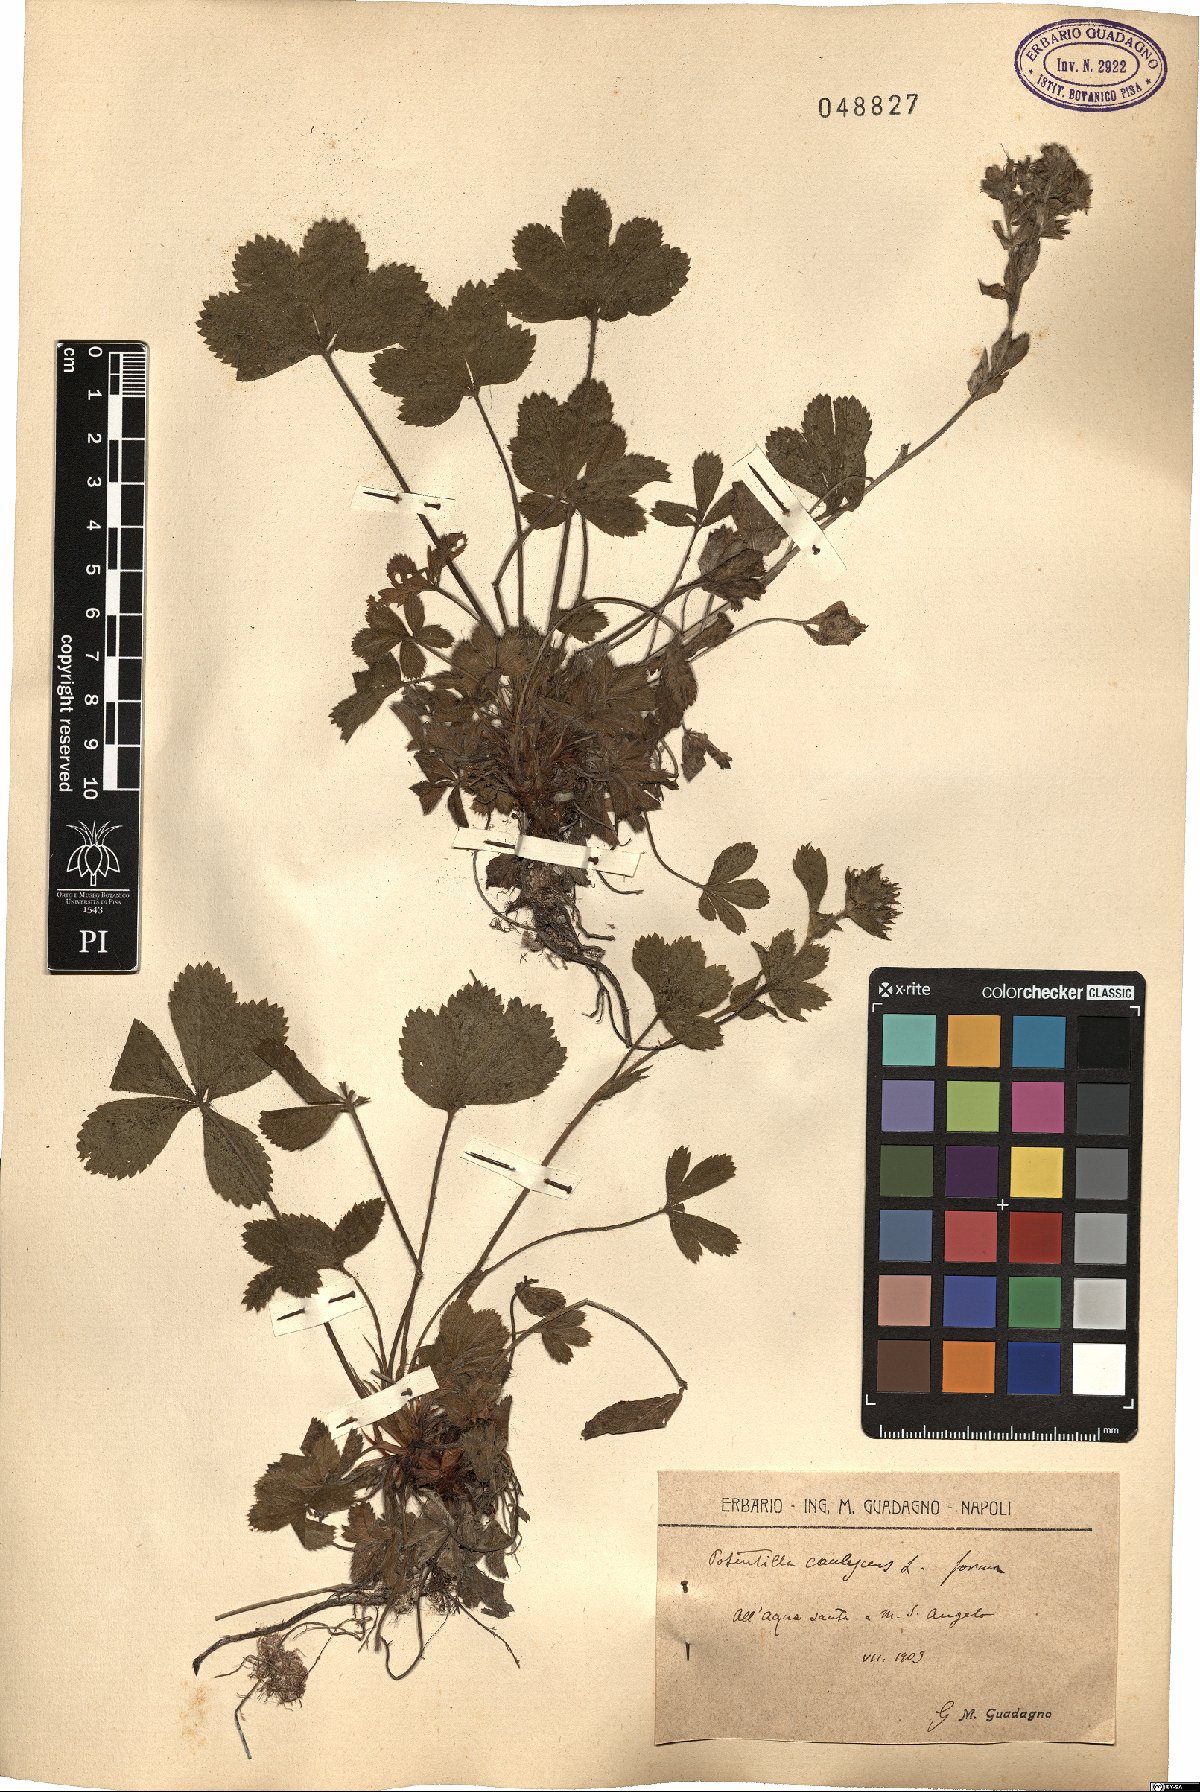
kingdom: Plantae
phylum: Tracheophyta
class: Magnoliopsida
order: Rosales
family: Rosaceae
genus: Potentilla
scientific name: Potentilla caulescens
